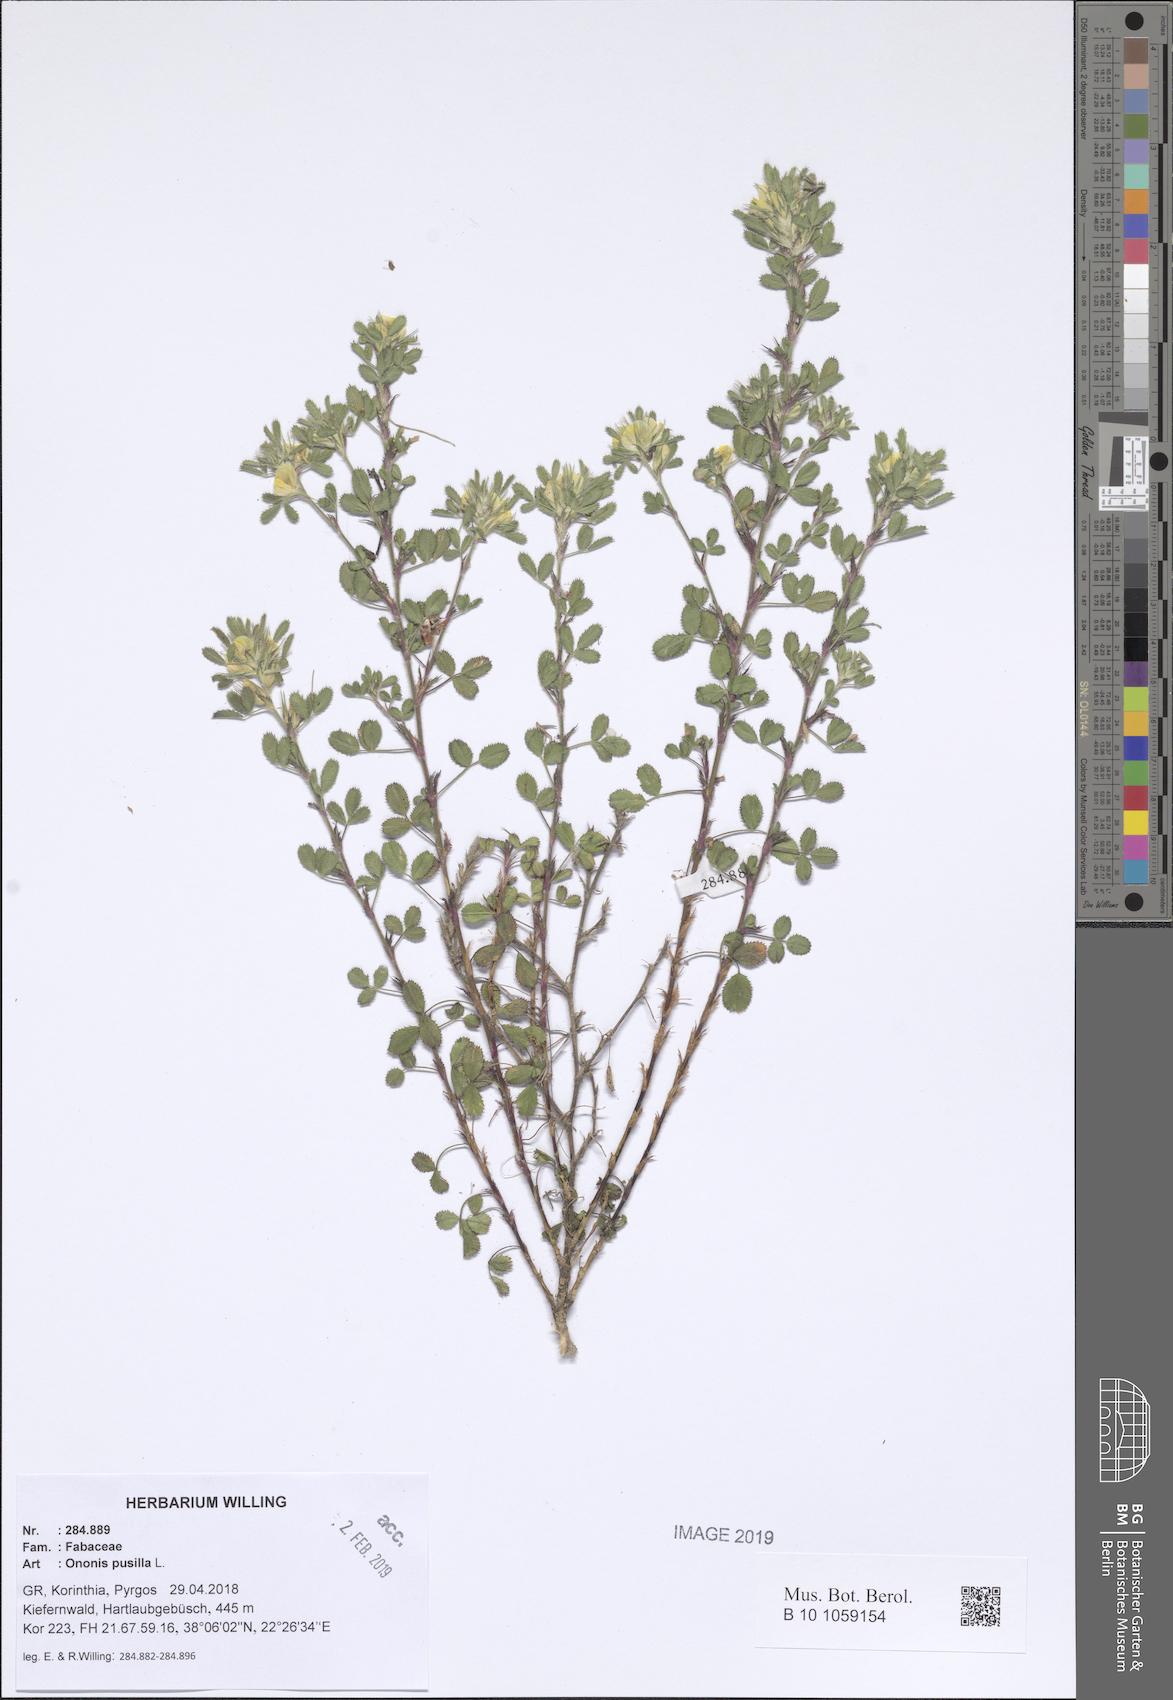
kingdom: Plantae
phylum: Tracheophyta
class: Magnoliopsida
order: Fabales
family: Fabaceae
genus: Ononis
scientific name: Ononis pusilla
